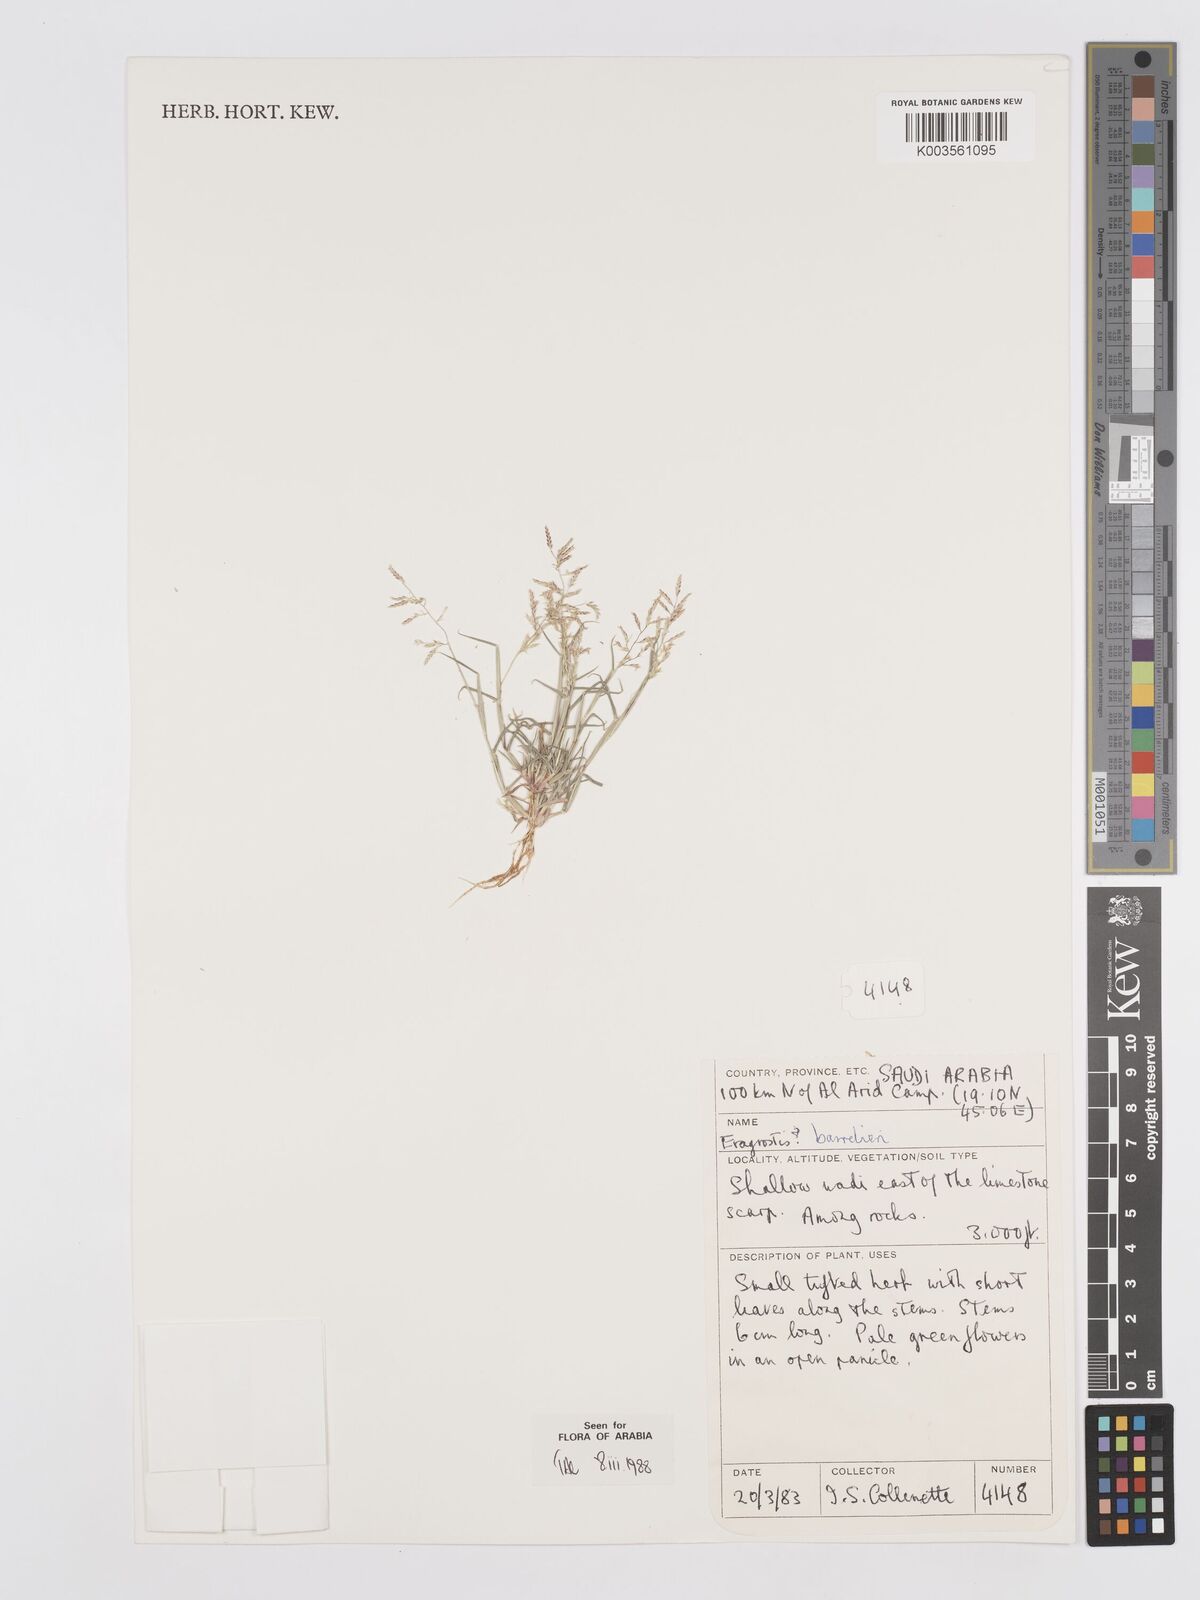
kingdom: Plantae
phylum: Tracheophyta
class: Liliopsida
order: Poales
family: Poaceae
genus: Eragrostis
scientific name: Eragrostis barrelieri
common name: Mediterranean lovegrass
